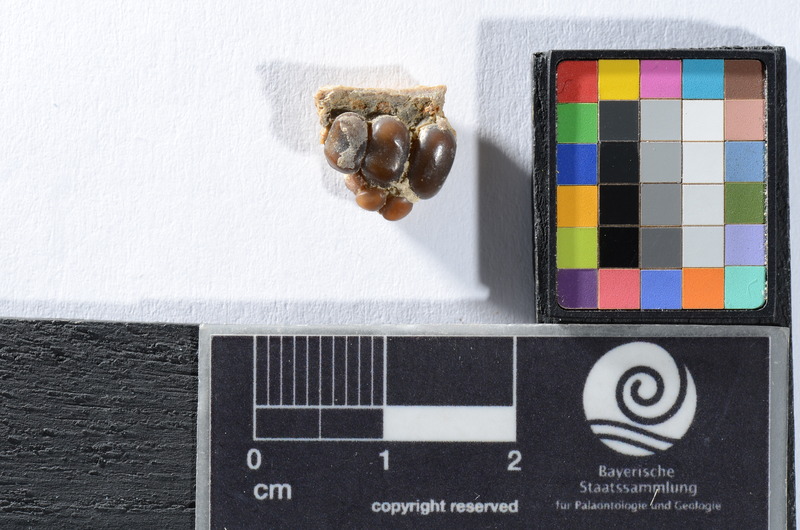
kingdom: Animalia
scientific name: Animalia
